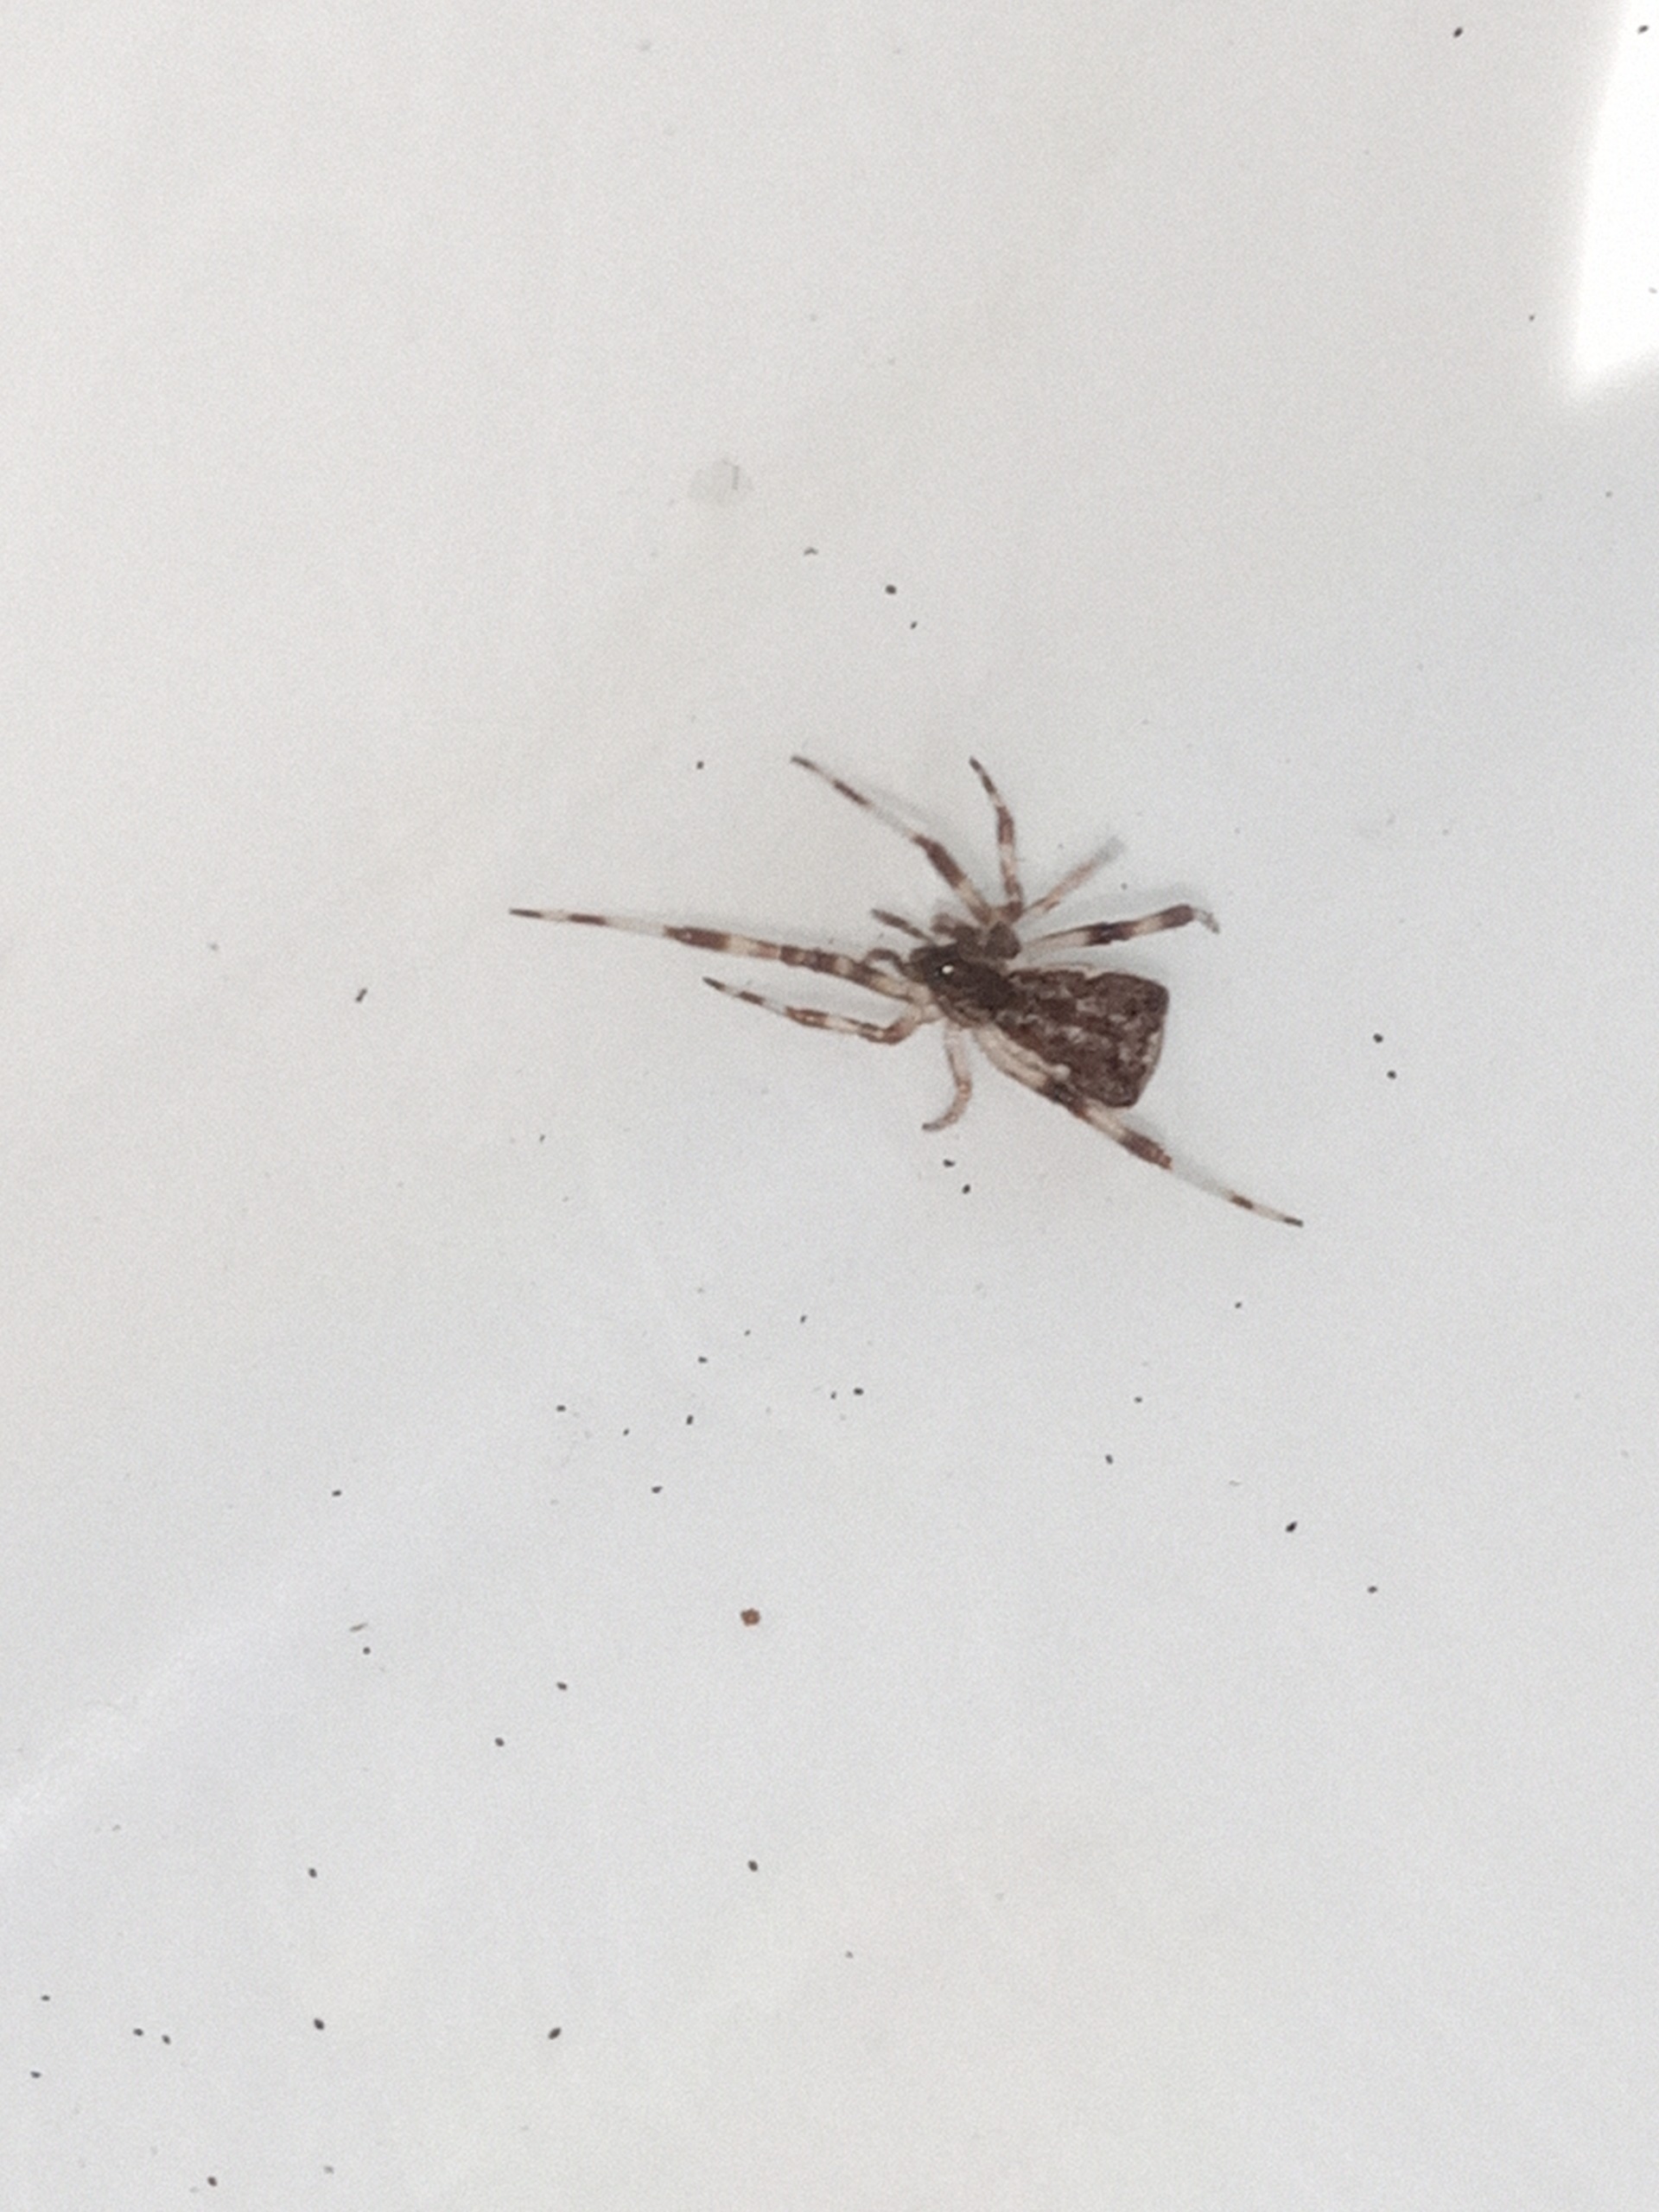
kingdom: Animalia
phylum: Arthropoda
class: Arachnida
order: Araneae
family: Theridiidae
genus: Episinus
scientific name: Episinus angulatus
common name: Balalajkaedderkop
